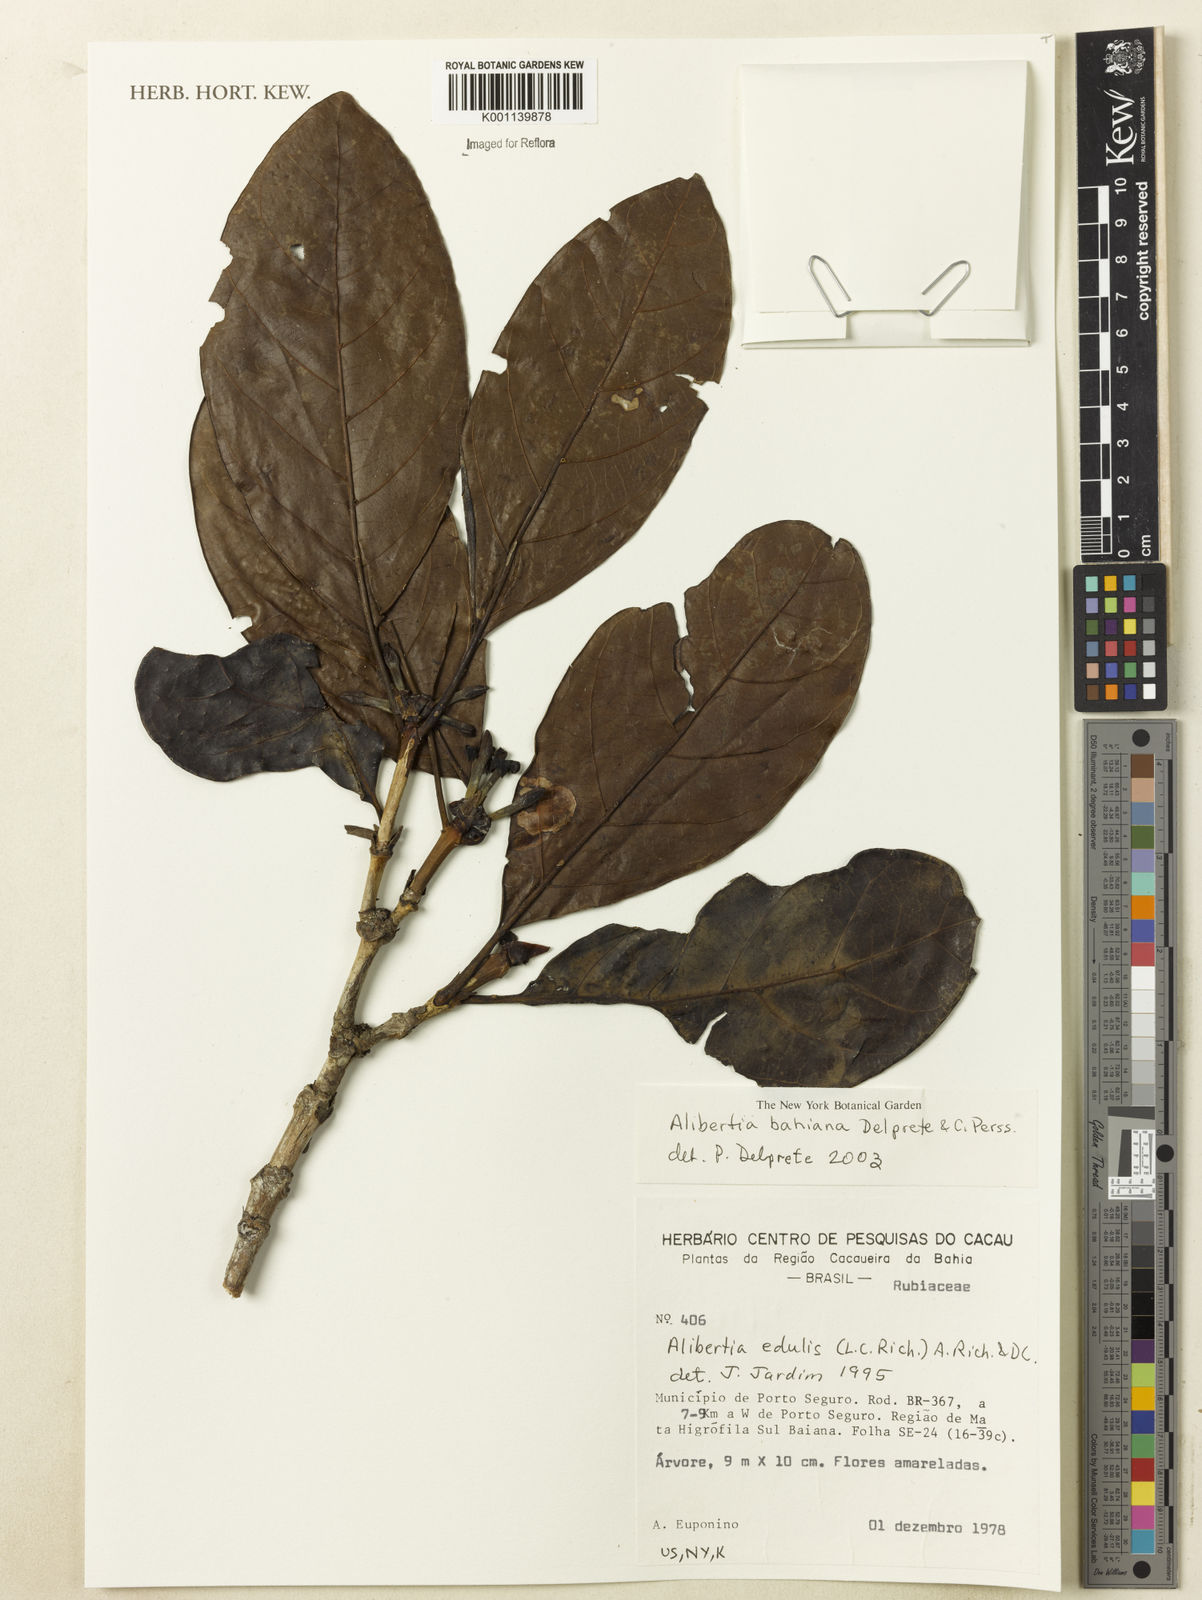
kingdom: Plantae
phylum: Tracheophyta
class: Magnoliopsida
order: Gentianales
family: Rubiaceae
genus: Alibertia
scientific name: Alibertia
